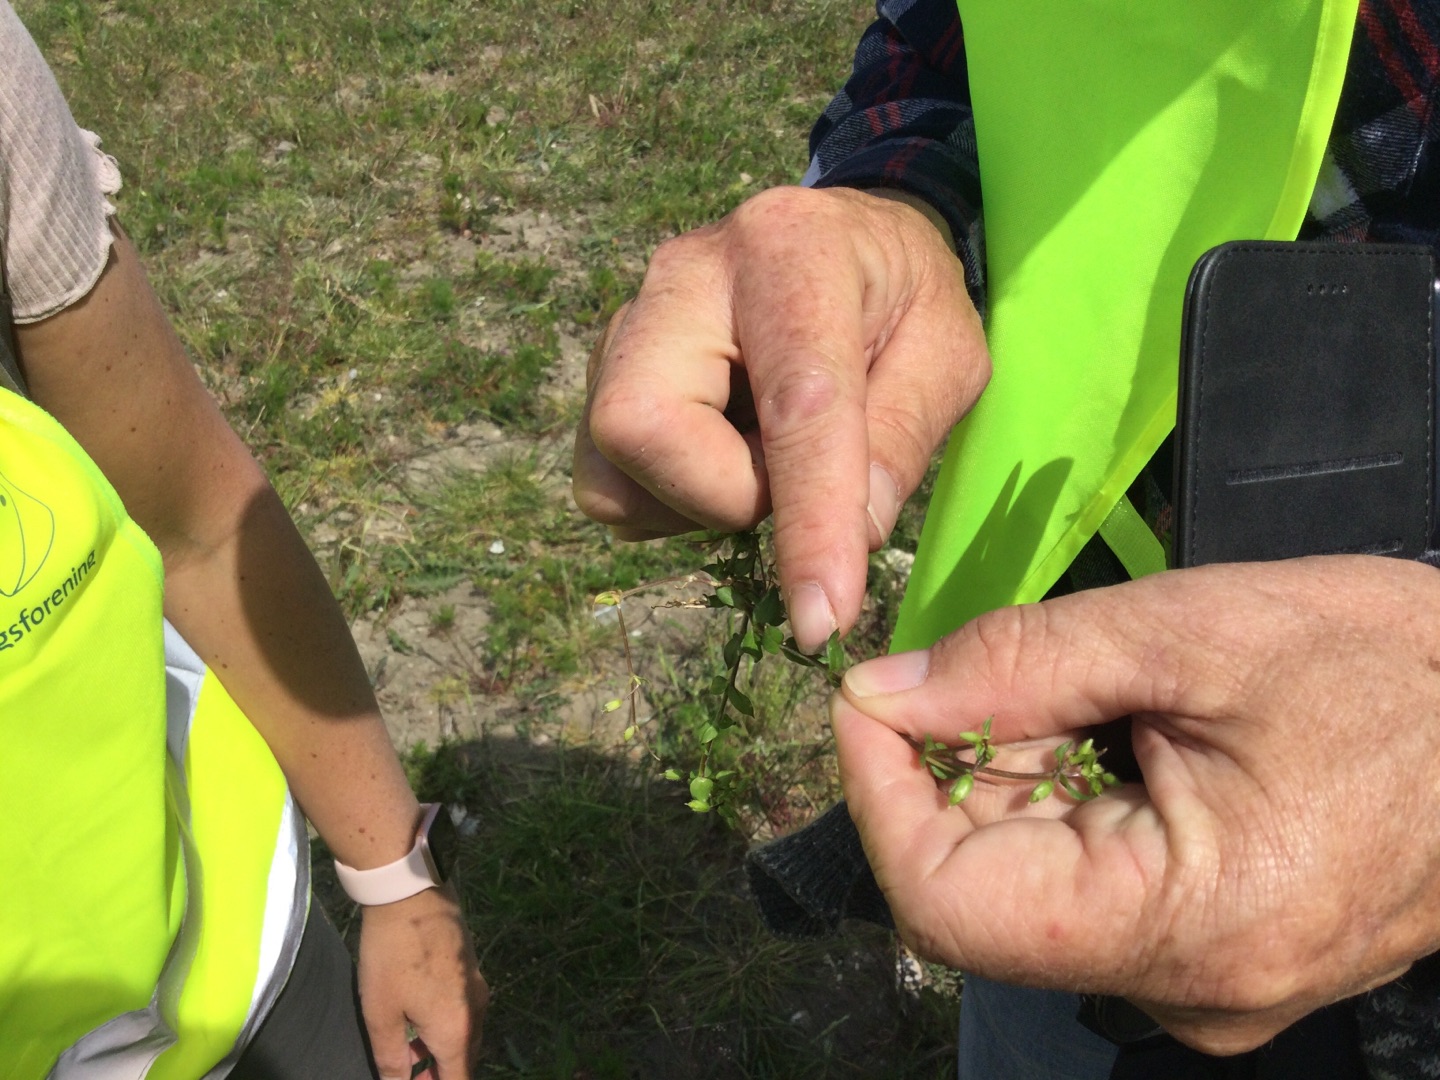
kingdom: Plantae
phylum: Tracheophyta
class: Magnoliopsida
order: Caryophyllales
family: Caryophyllaceae
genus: Stellaria
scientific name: Stellaria media
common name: Almindelig fuglegræs
